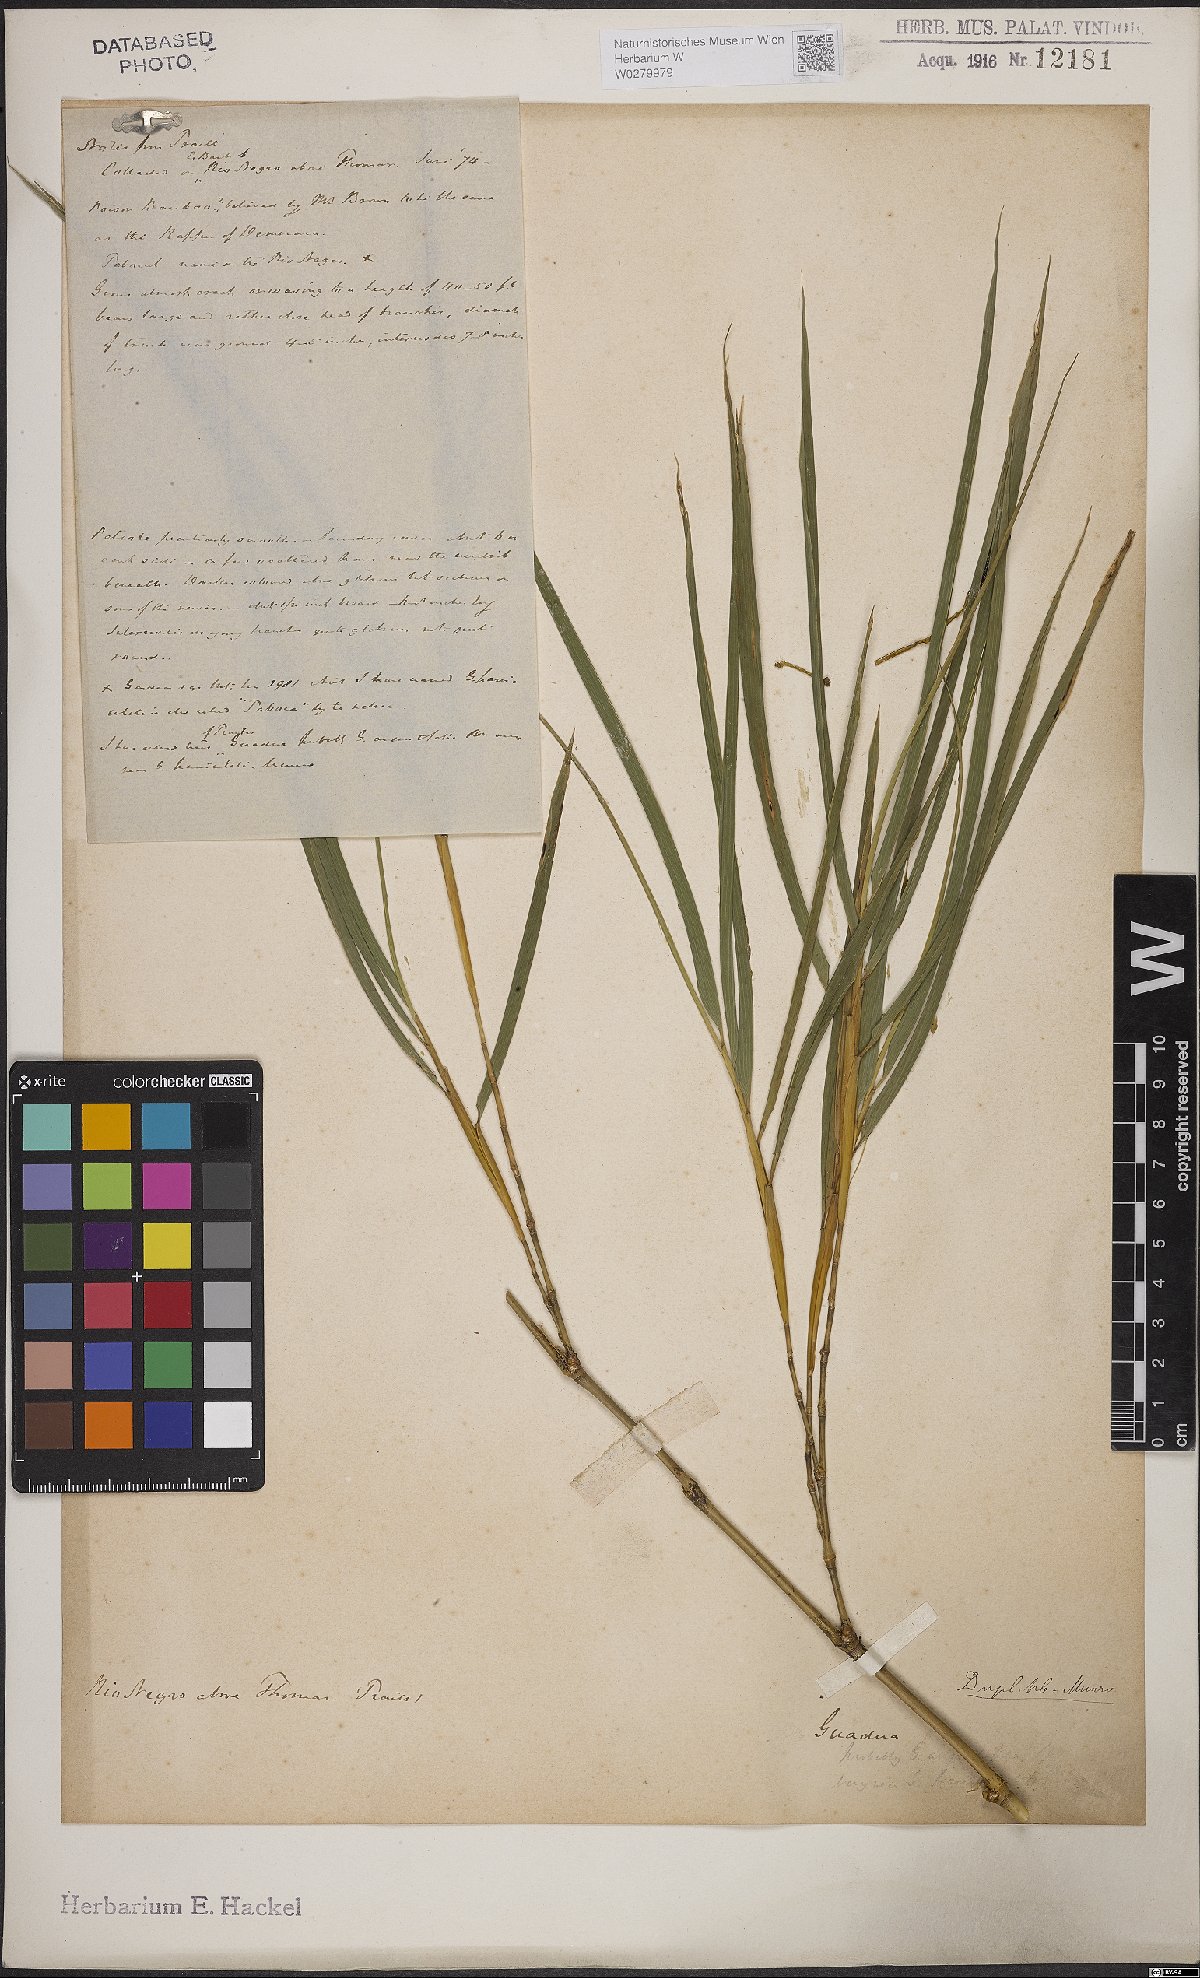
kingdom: Plantae
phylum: Tracheophyta
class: Liliopsida
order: Poales
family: Poaceae
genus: Bambusa
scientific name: Bambusa
